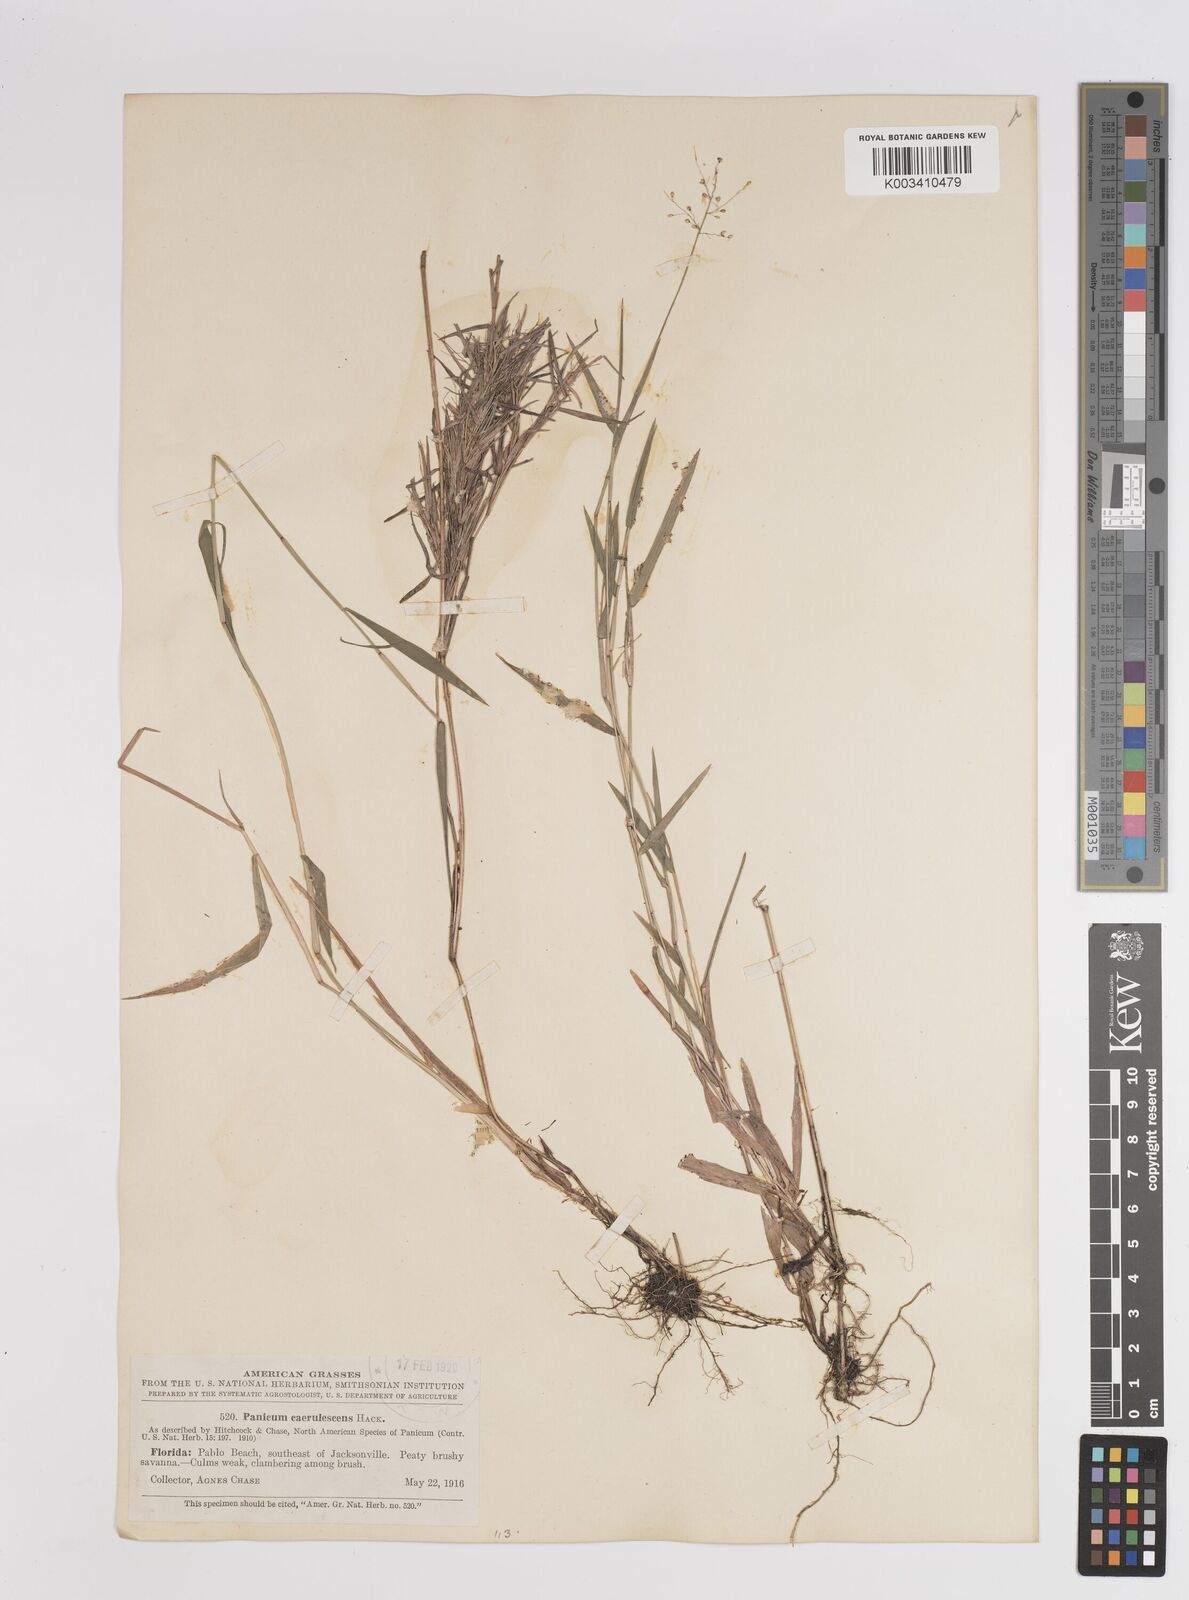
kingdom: Plantae
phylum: Tracheophyta
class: Liliopsida
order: Poales
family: Poaceae
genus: Dichanthelium
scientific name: Dichanthelium dichotomum
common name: Cypress panicgrass
